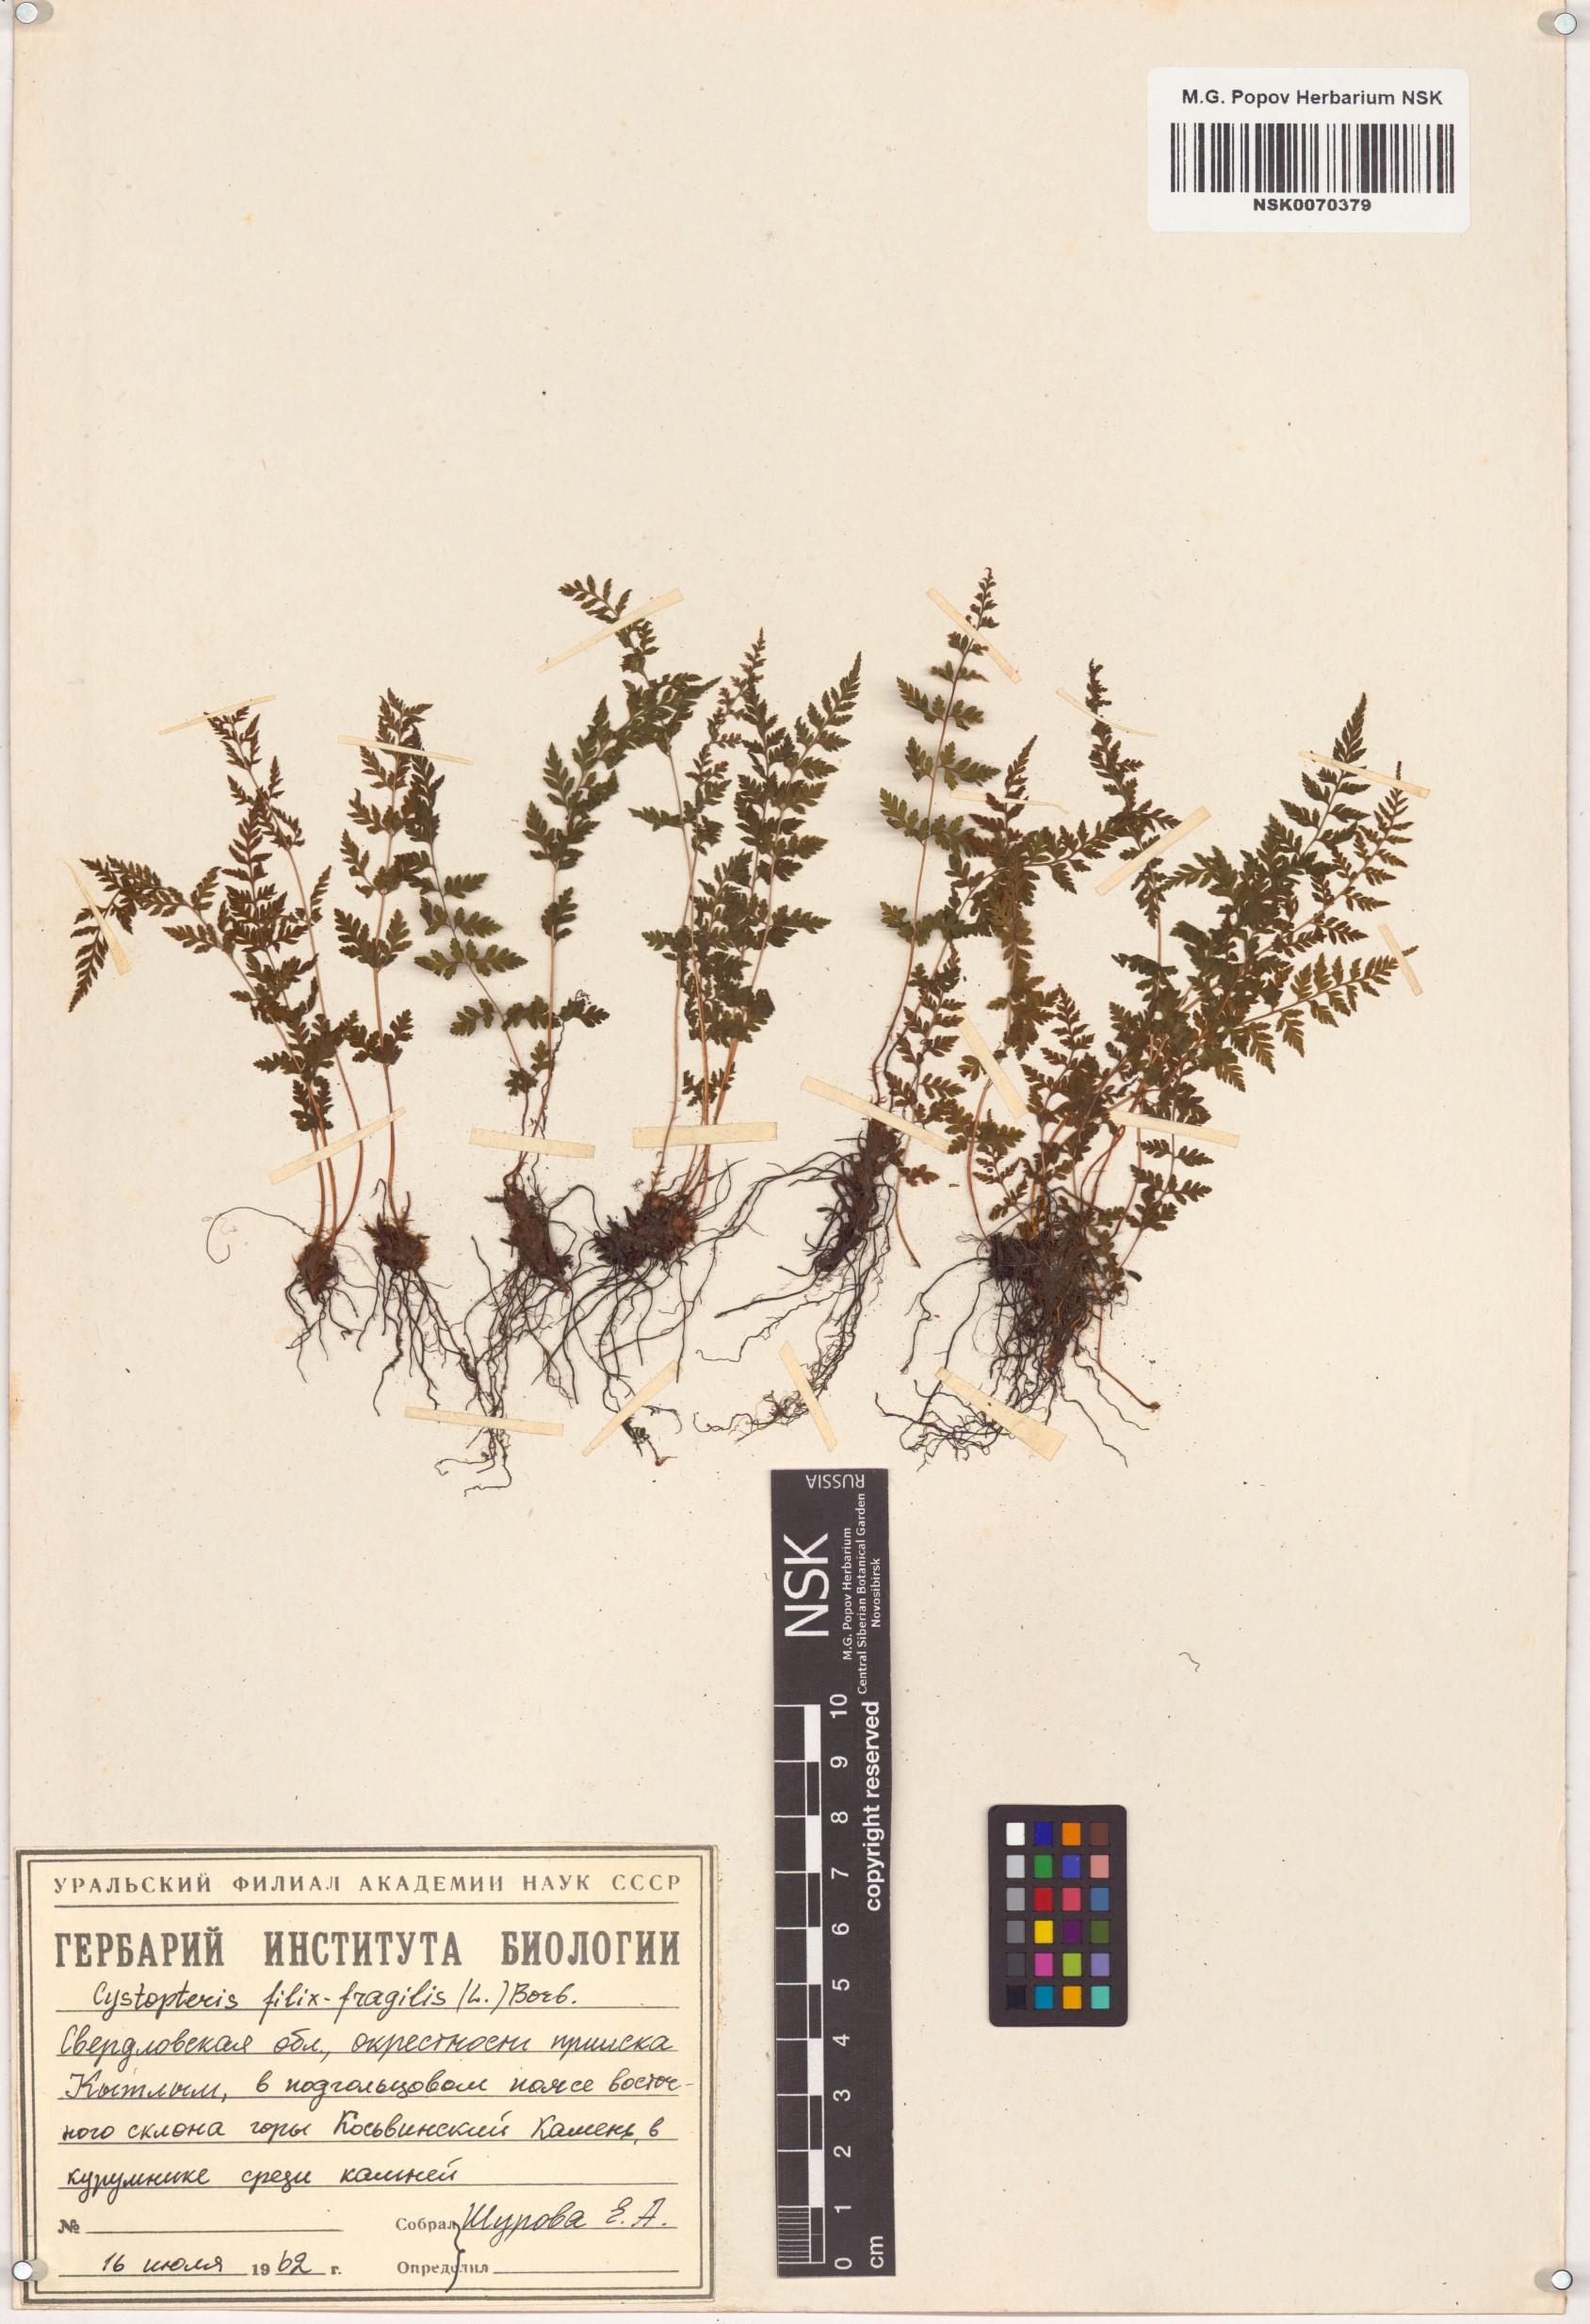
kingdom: Plantae
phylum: Tracheophyta
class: Polypodiopsida
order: Polypodiales
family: Cystopteridaceae
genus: Cystopteris
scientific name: Cystopteris fragilis
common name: Brittle bladder fern
